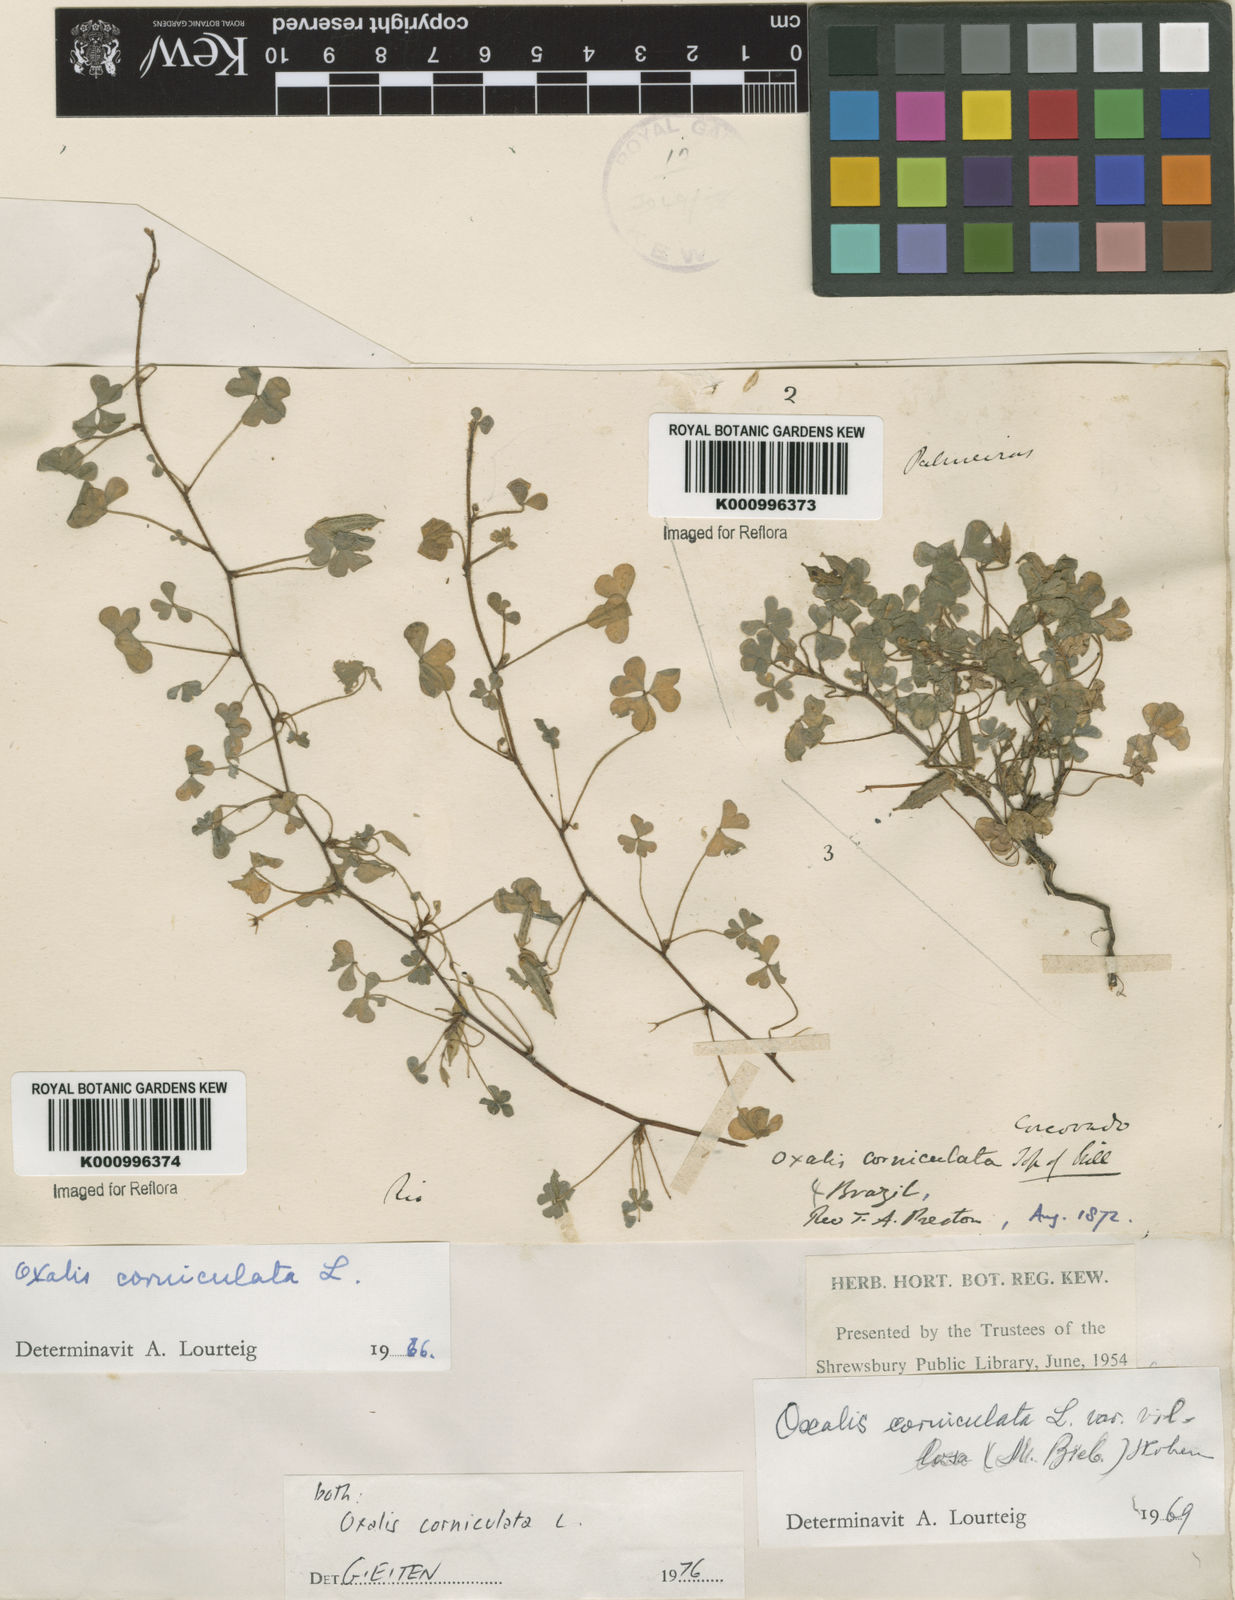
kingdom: Plantae
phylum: Tracheophyta
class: Magnoliopsida
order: Oxalidales
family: Oxalidaceae
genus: Oxalis
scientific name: Oxalis corniculata
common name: Procumbent yellow-sorrel
